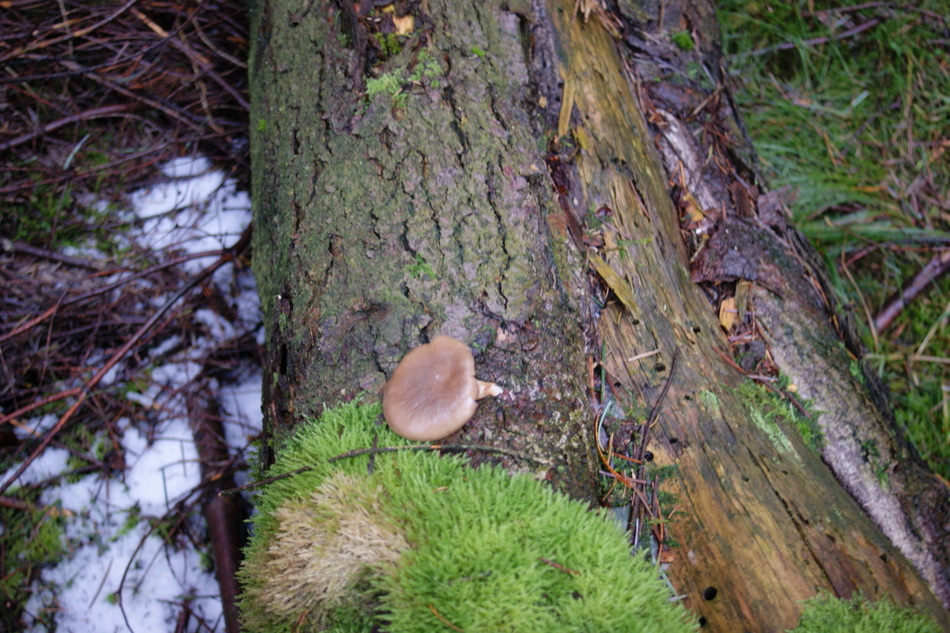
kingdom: Fungi
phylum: Basidiomycota
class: Agaricomycetes
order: Agaricales
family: Pleurotaceae
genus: Pleurotus
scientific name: Pleurotus ostreatus
